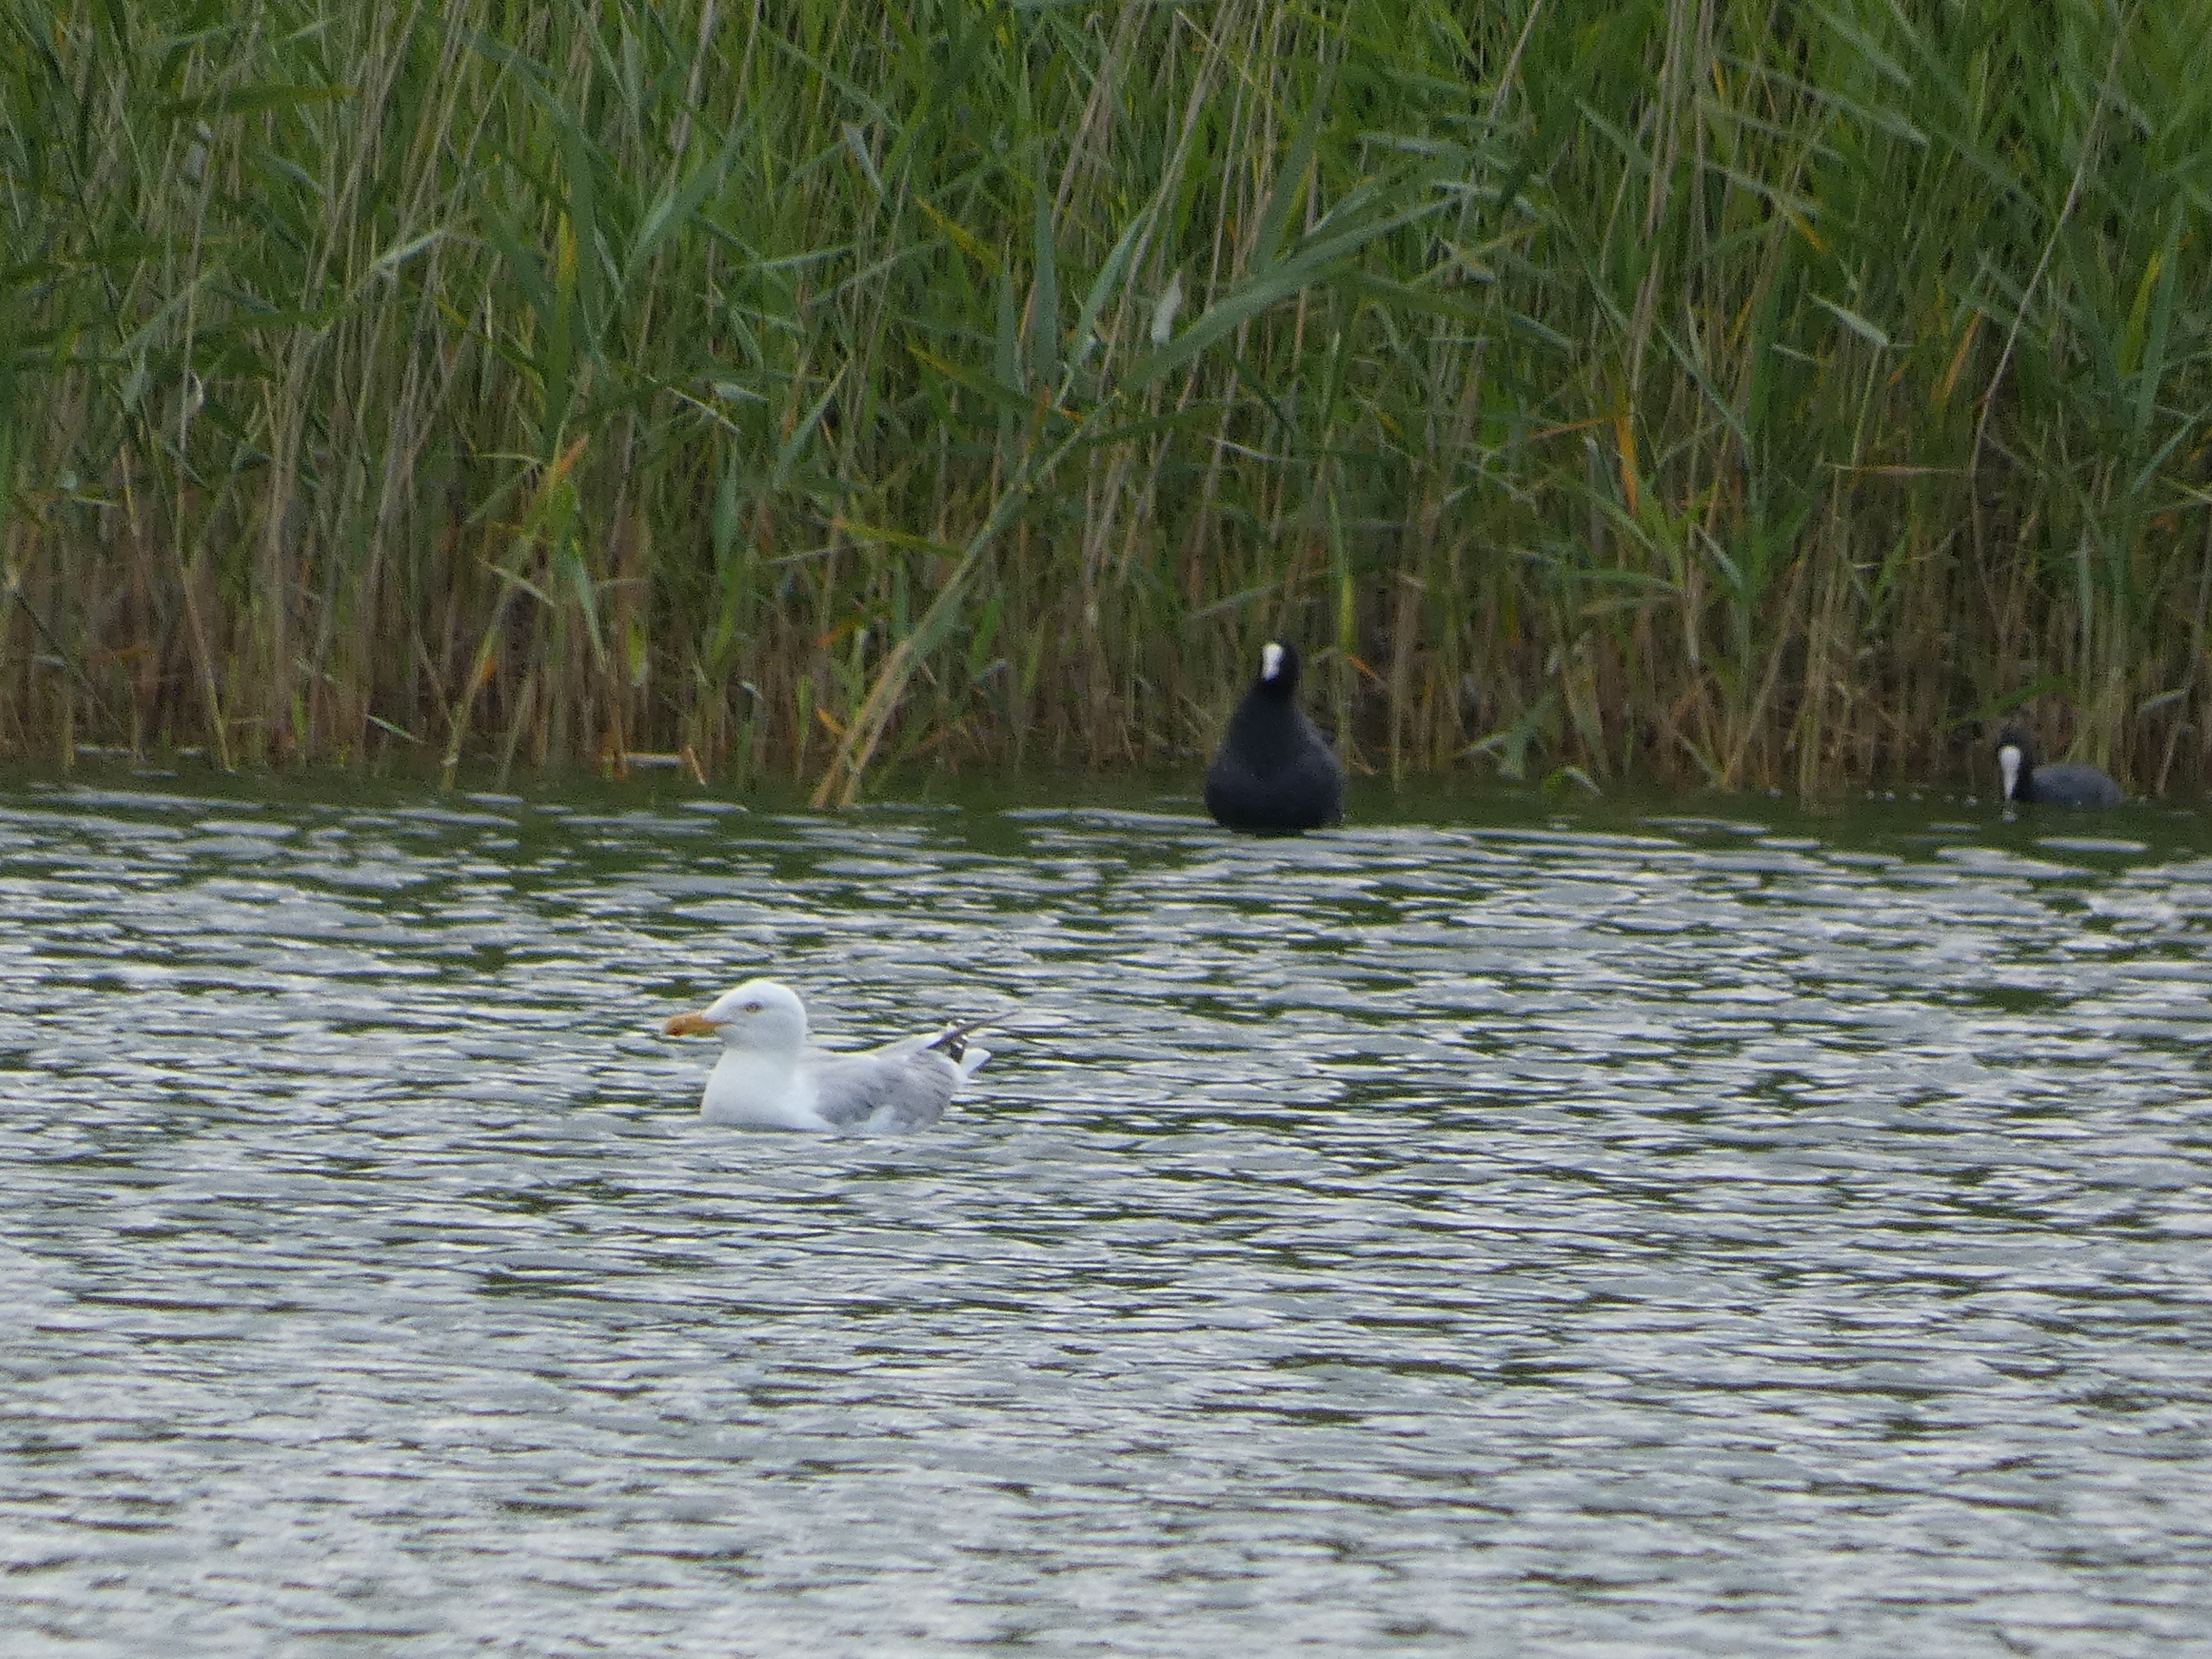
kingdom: Animalia
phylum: Chordata
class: Aves
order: Charadriiformes
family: Laridae
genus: Larus
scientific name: Larus argentatus
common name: Sølvmåge
